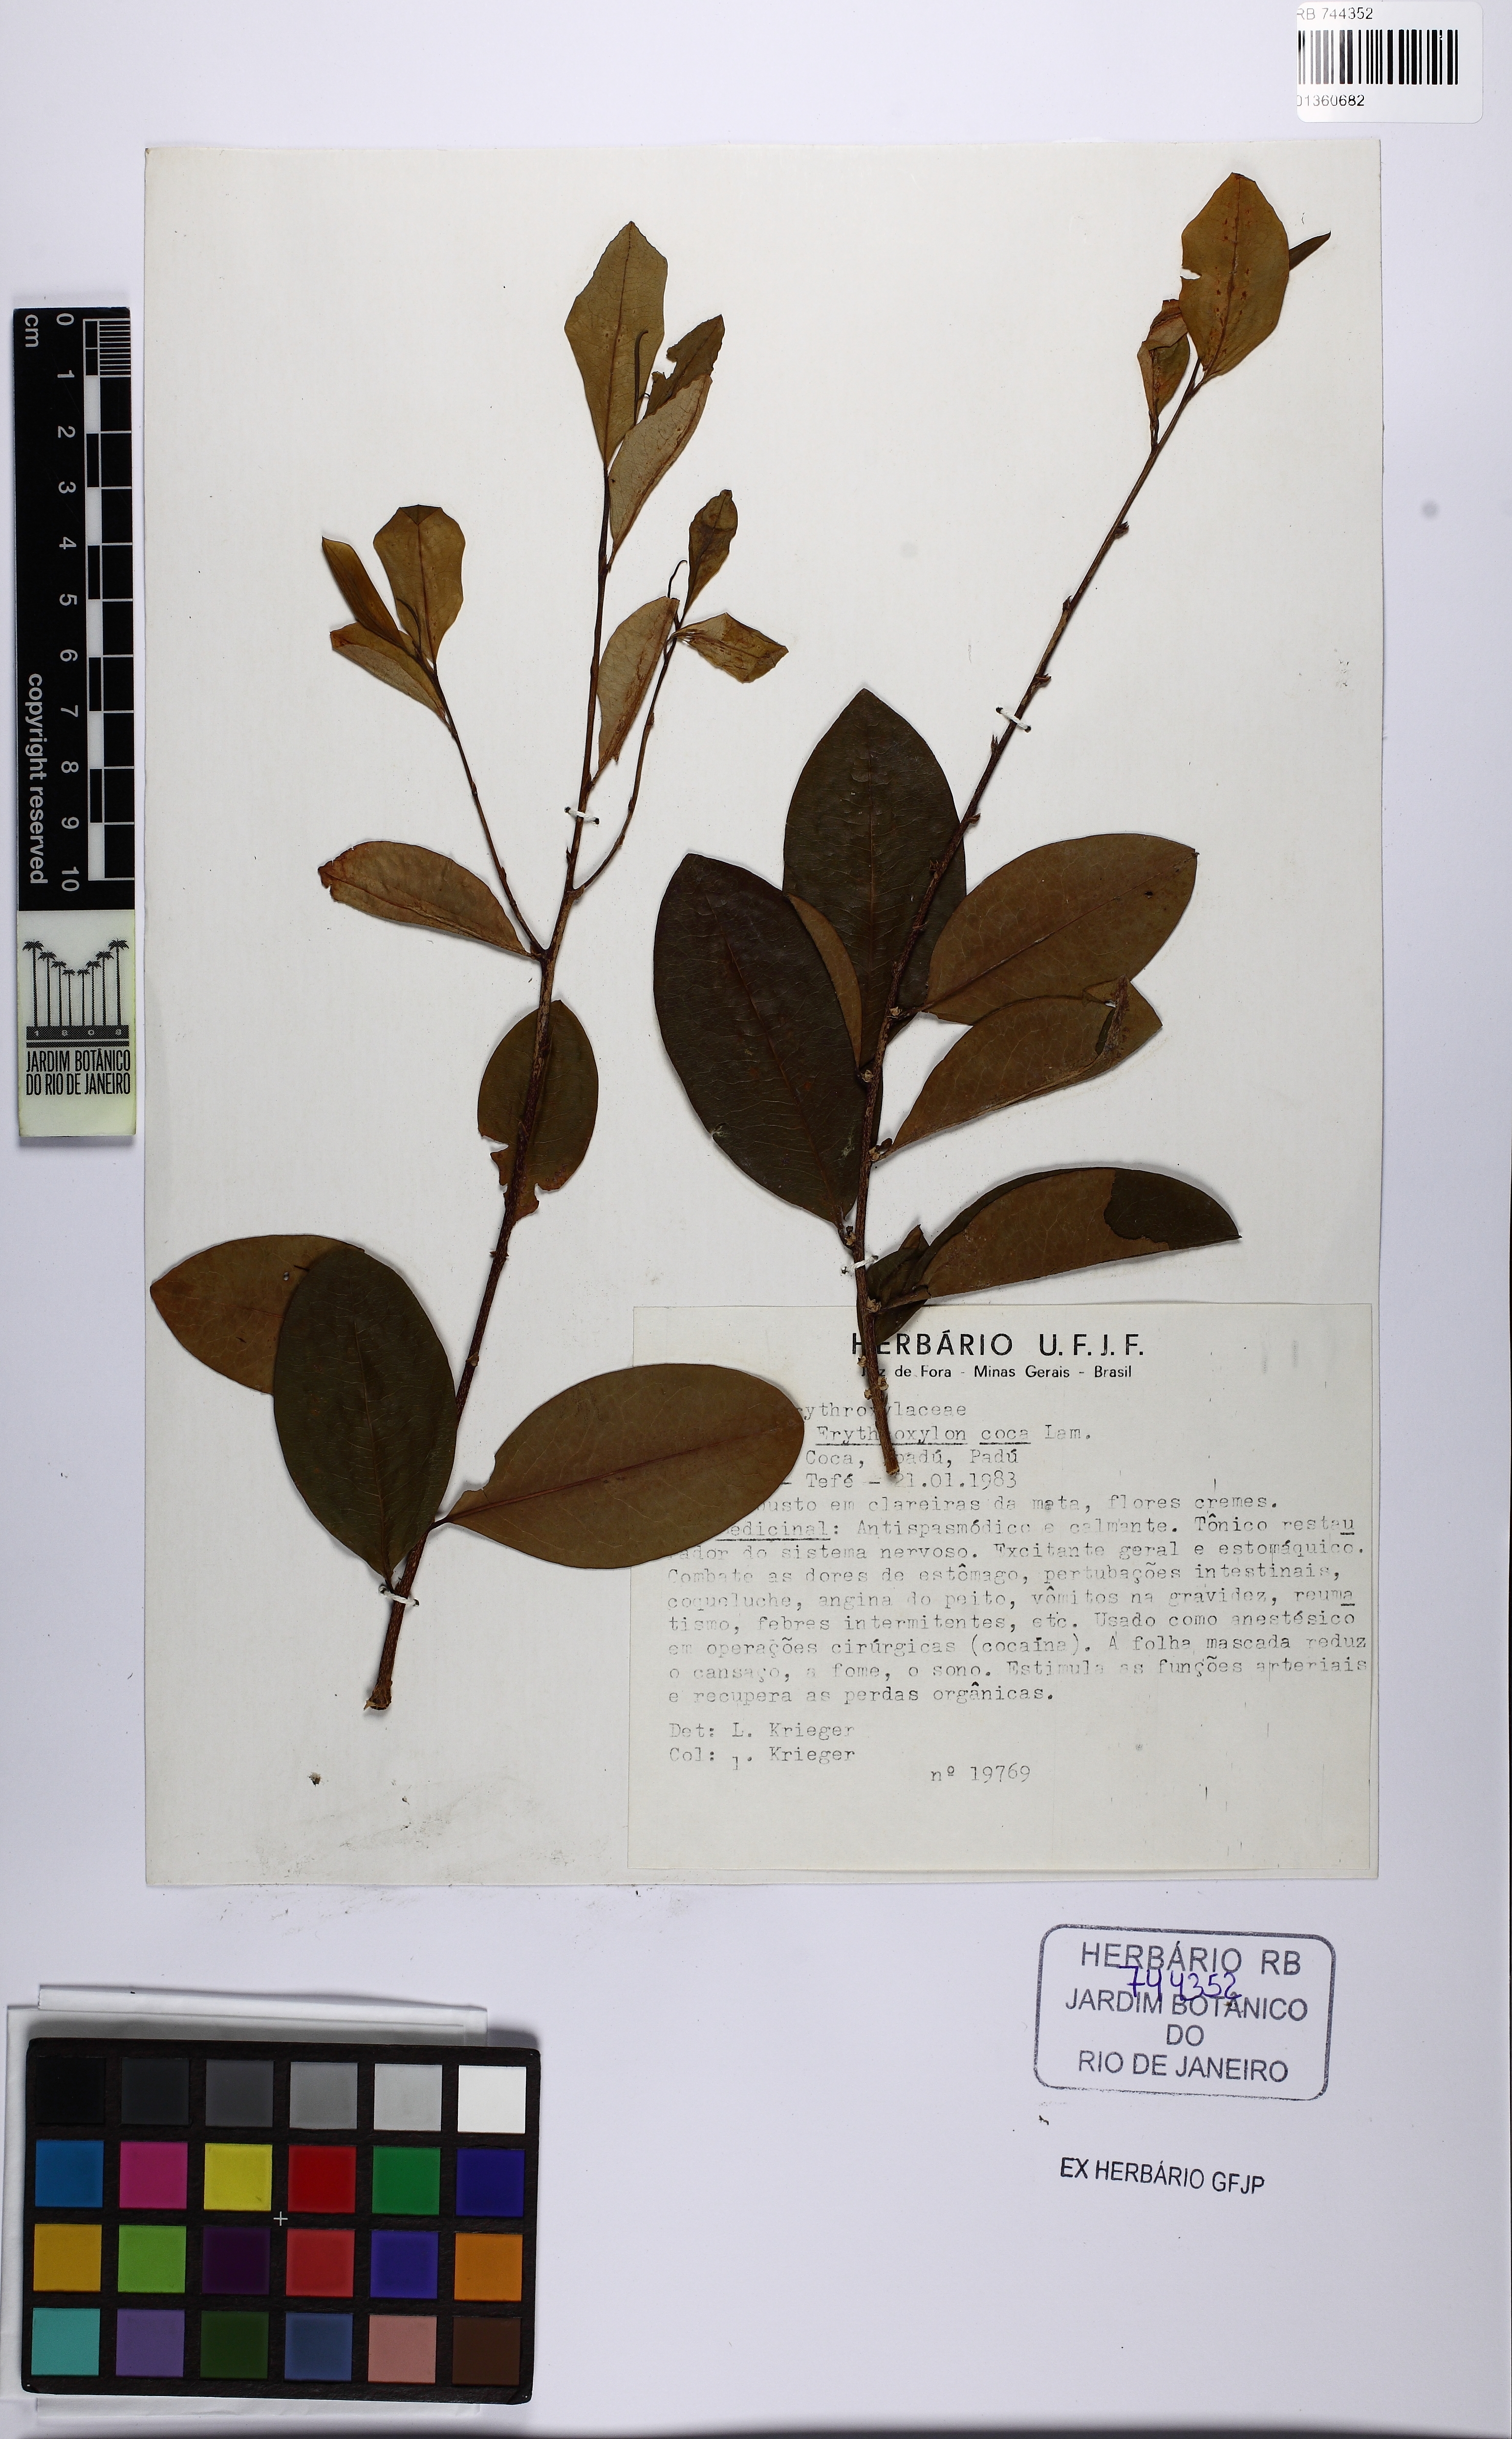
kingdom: Plantae
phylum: Tracheophyta
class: Magnoliopsida
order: Malpighiales
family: Erythroxylaceae
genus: Erythroxylum
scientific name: Erythroxylum coca
